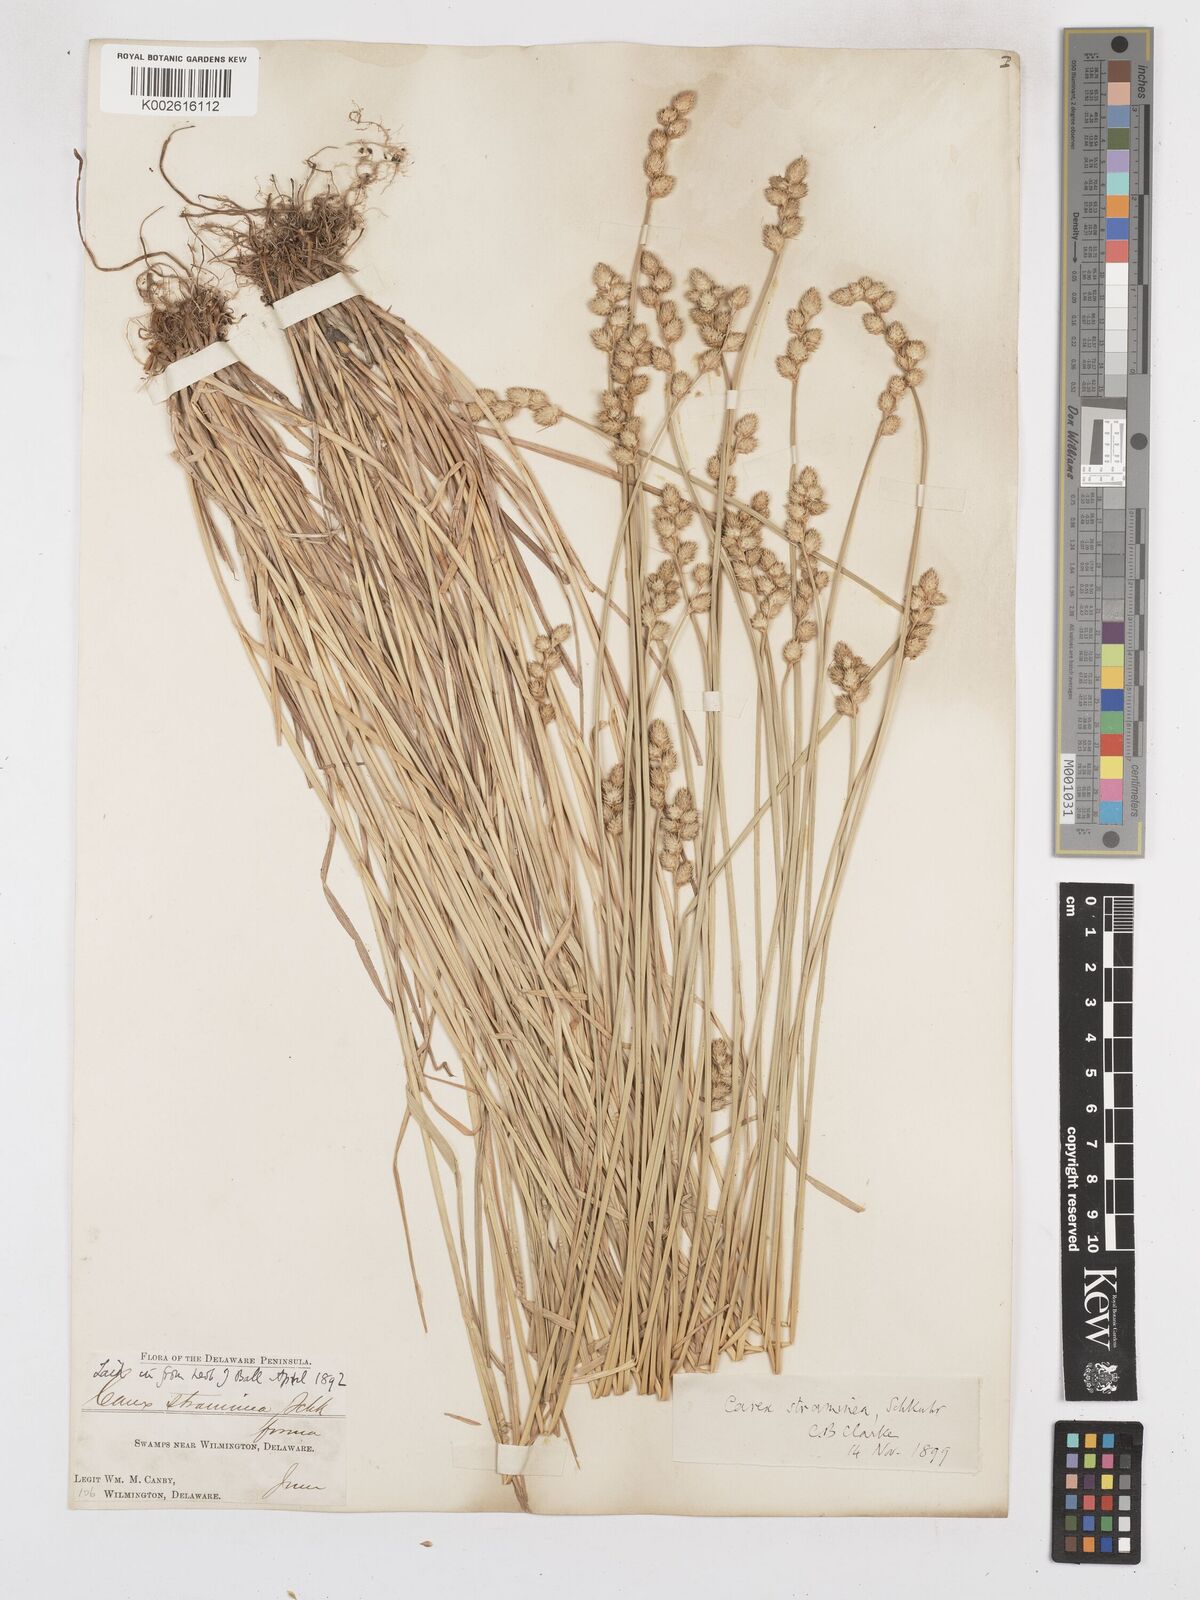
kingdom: Plantae
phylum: Tracheophyta
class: Liliopsida
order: Poales
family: Cyperaceae
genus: Carex
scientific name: Carex brevior
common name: Brevior sedge
